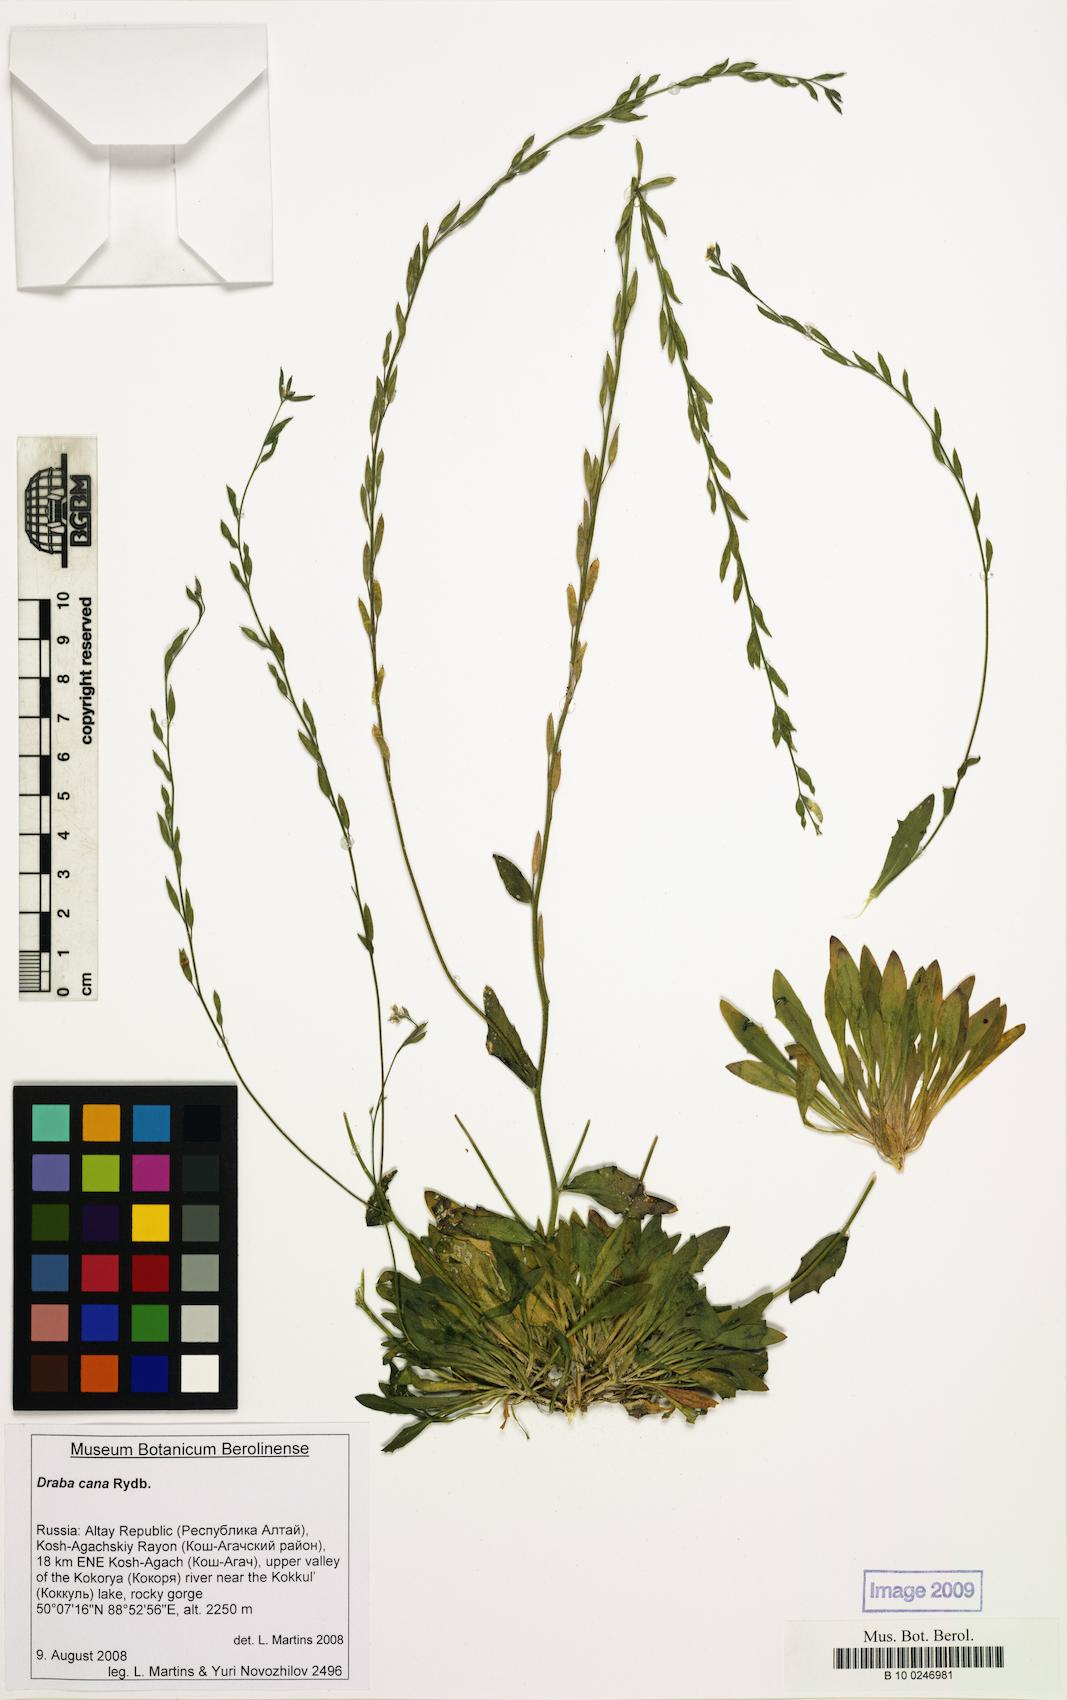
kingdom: Plantae
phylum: Tracheophyta
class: Magnoliopsida
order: Brassicales
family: Brassicaceae
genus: Draba
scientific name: Draba cana
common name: Hoary draba
